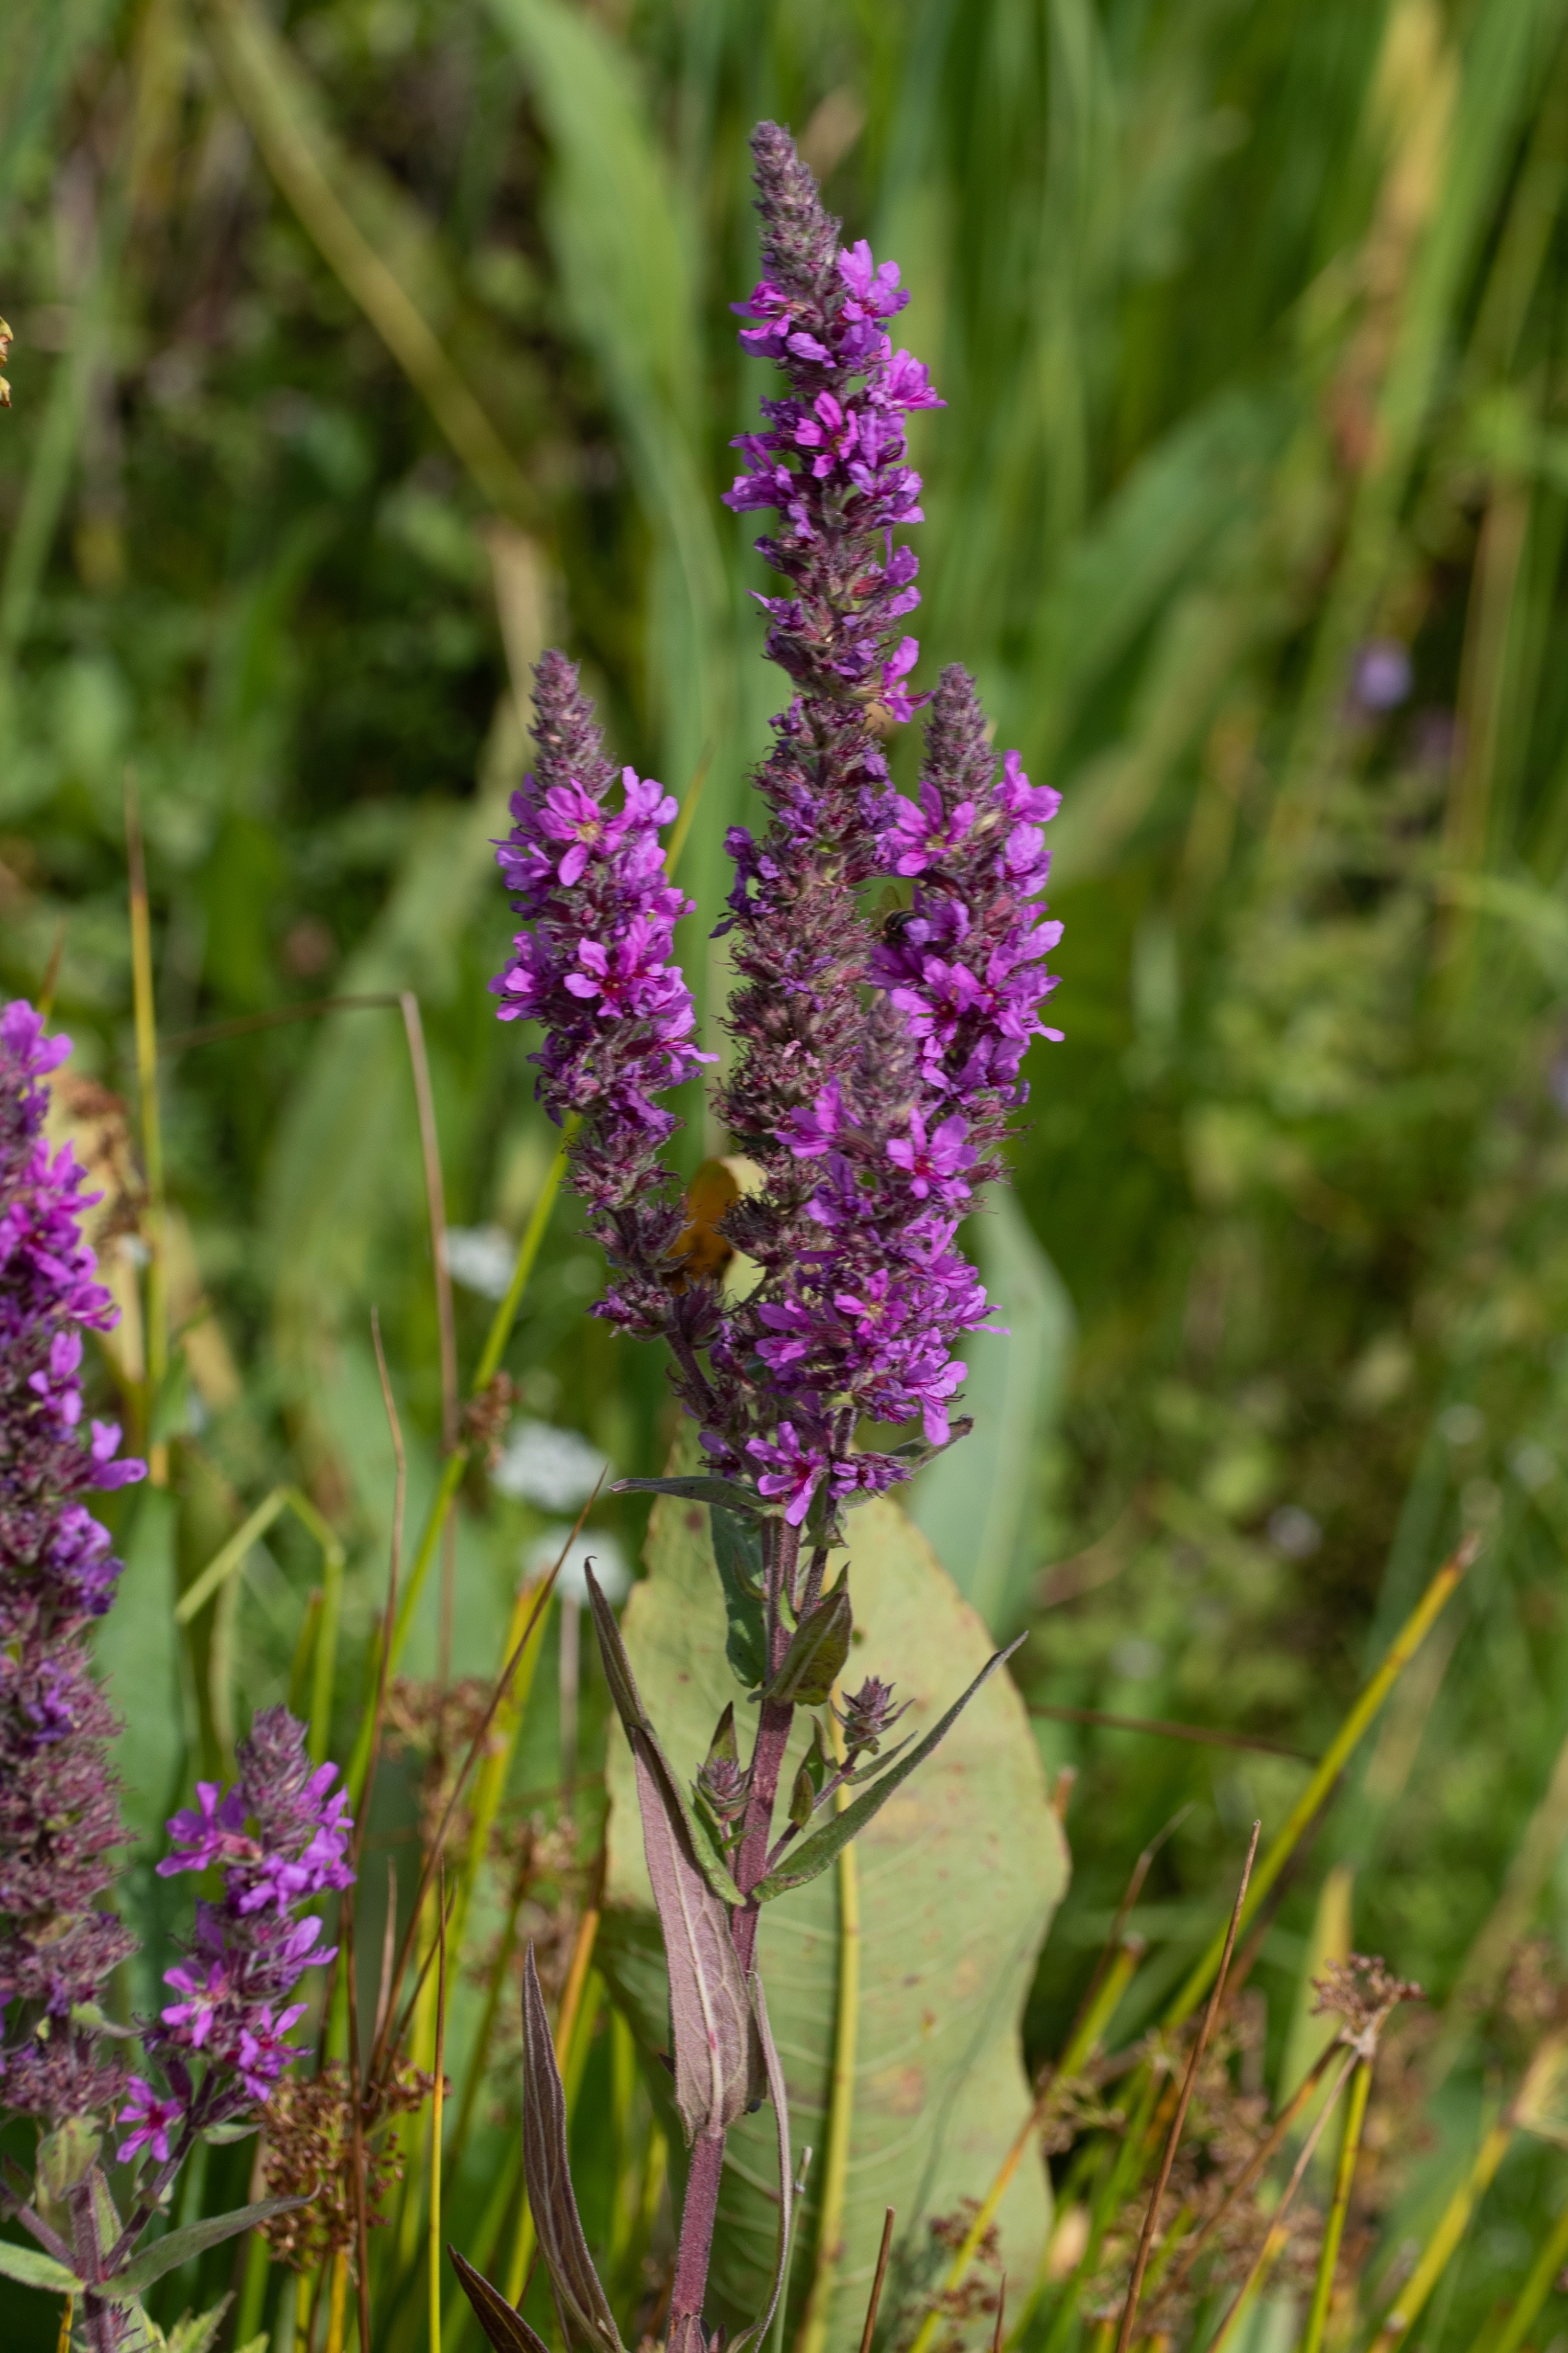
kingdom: Plantae
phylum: Tracheophyta
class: Magnoliopsida
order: Myrtales
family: Lythraceae
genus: Lythrum
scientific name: Lythrum salicaria
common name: Kattehale
